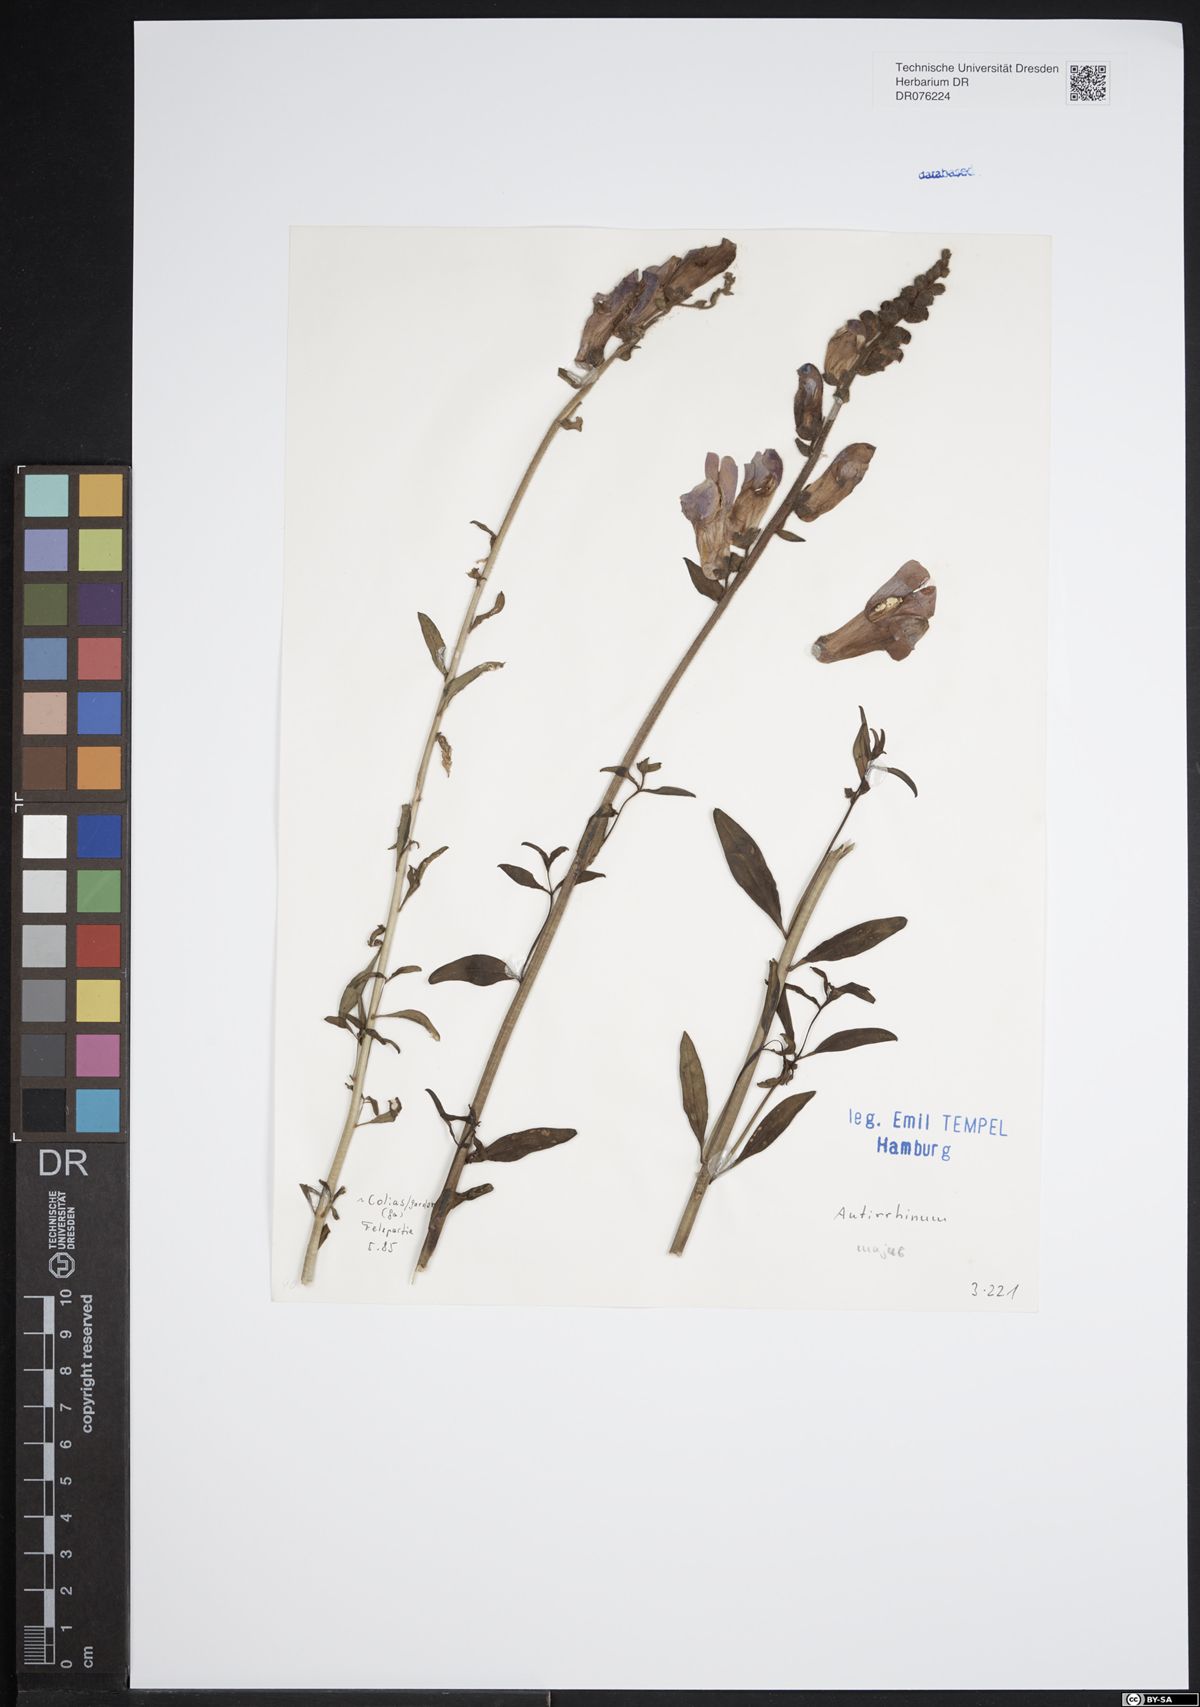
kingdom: Plantae
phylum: Tracheophyta
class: Magnoliopsida
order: Lamiales
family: Plantaginaceae
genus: Antirrhinum
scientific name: Antirrhinum majus
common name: Snapdragon
